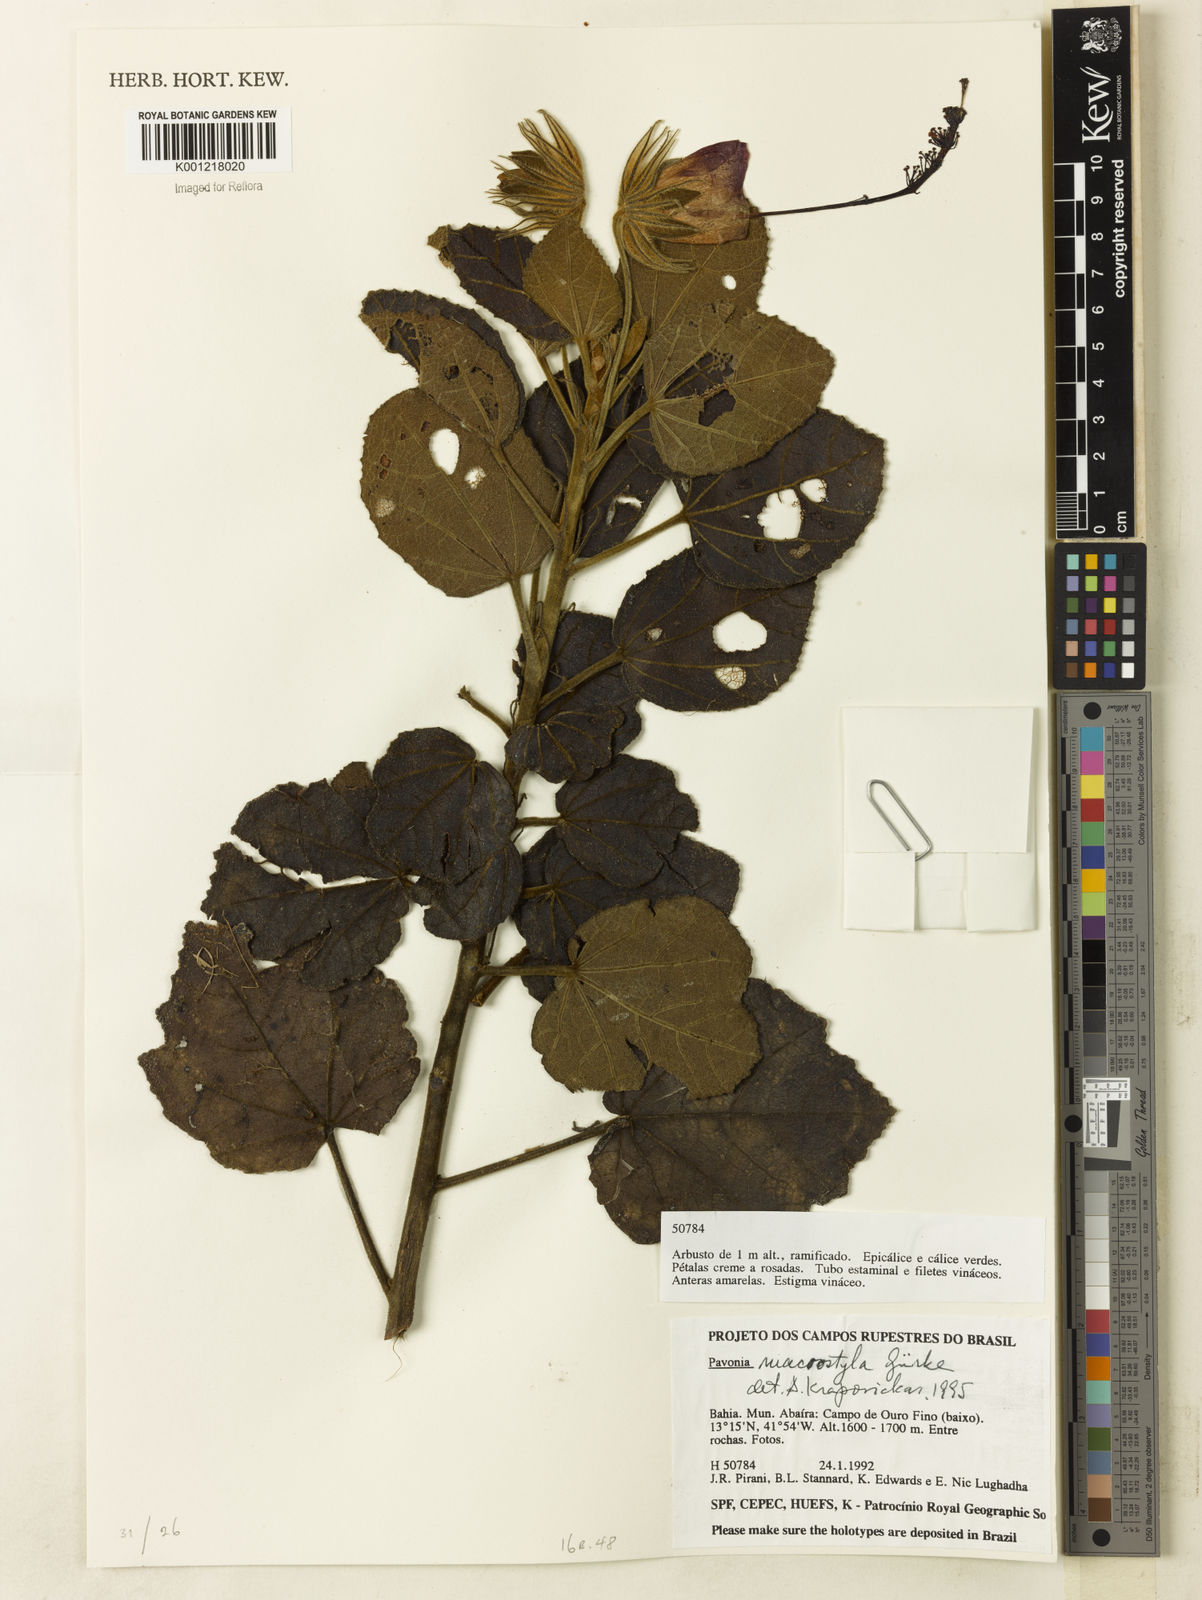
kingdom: Plantae
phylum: Tracheophyta
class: Magnoliopsida
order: Malvales
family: Malvaceae
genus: Pavonia
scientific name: Pavonia
